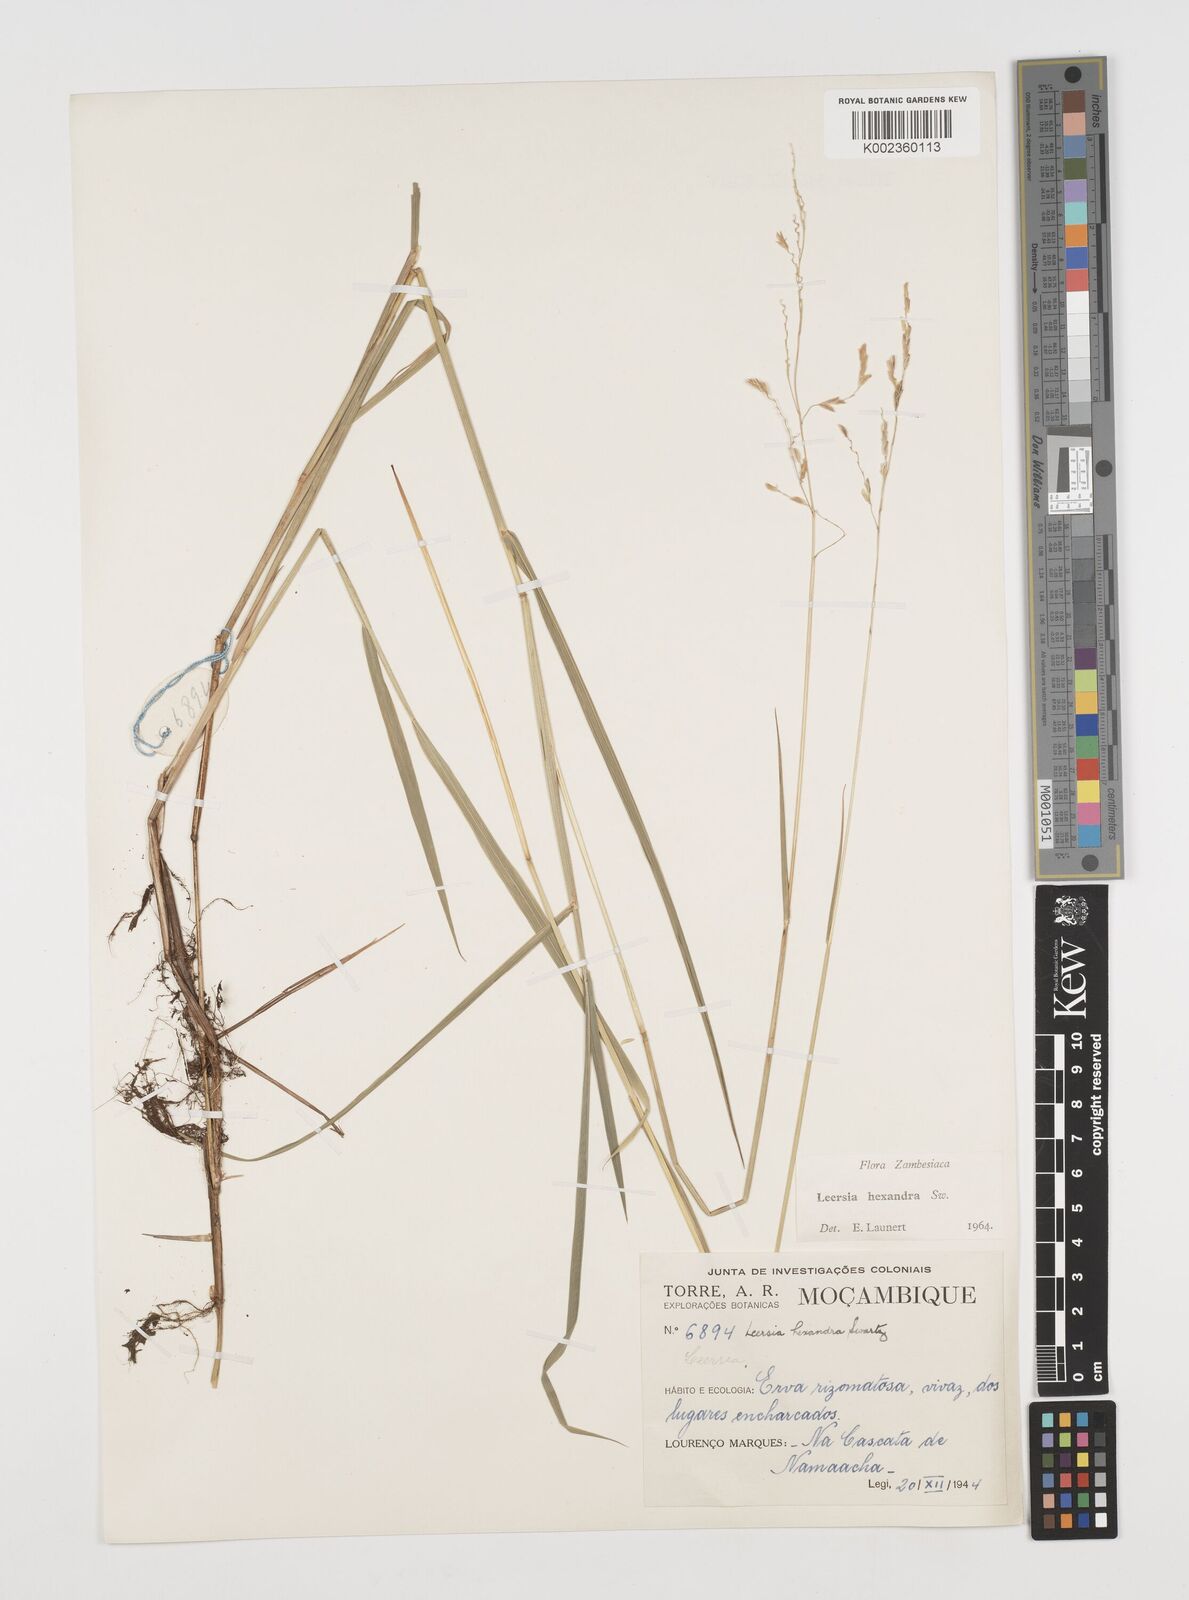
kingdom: Plantae
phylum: Tracheophyta
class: Liliopsida
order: Poales
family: Poaceae
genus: Leersia
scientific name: Leersia hexandra
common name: Southern cut grass
